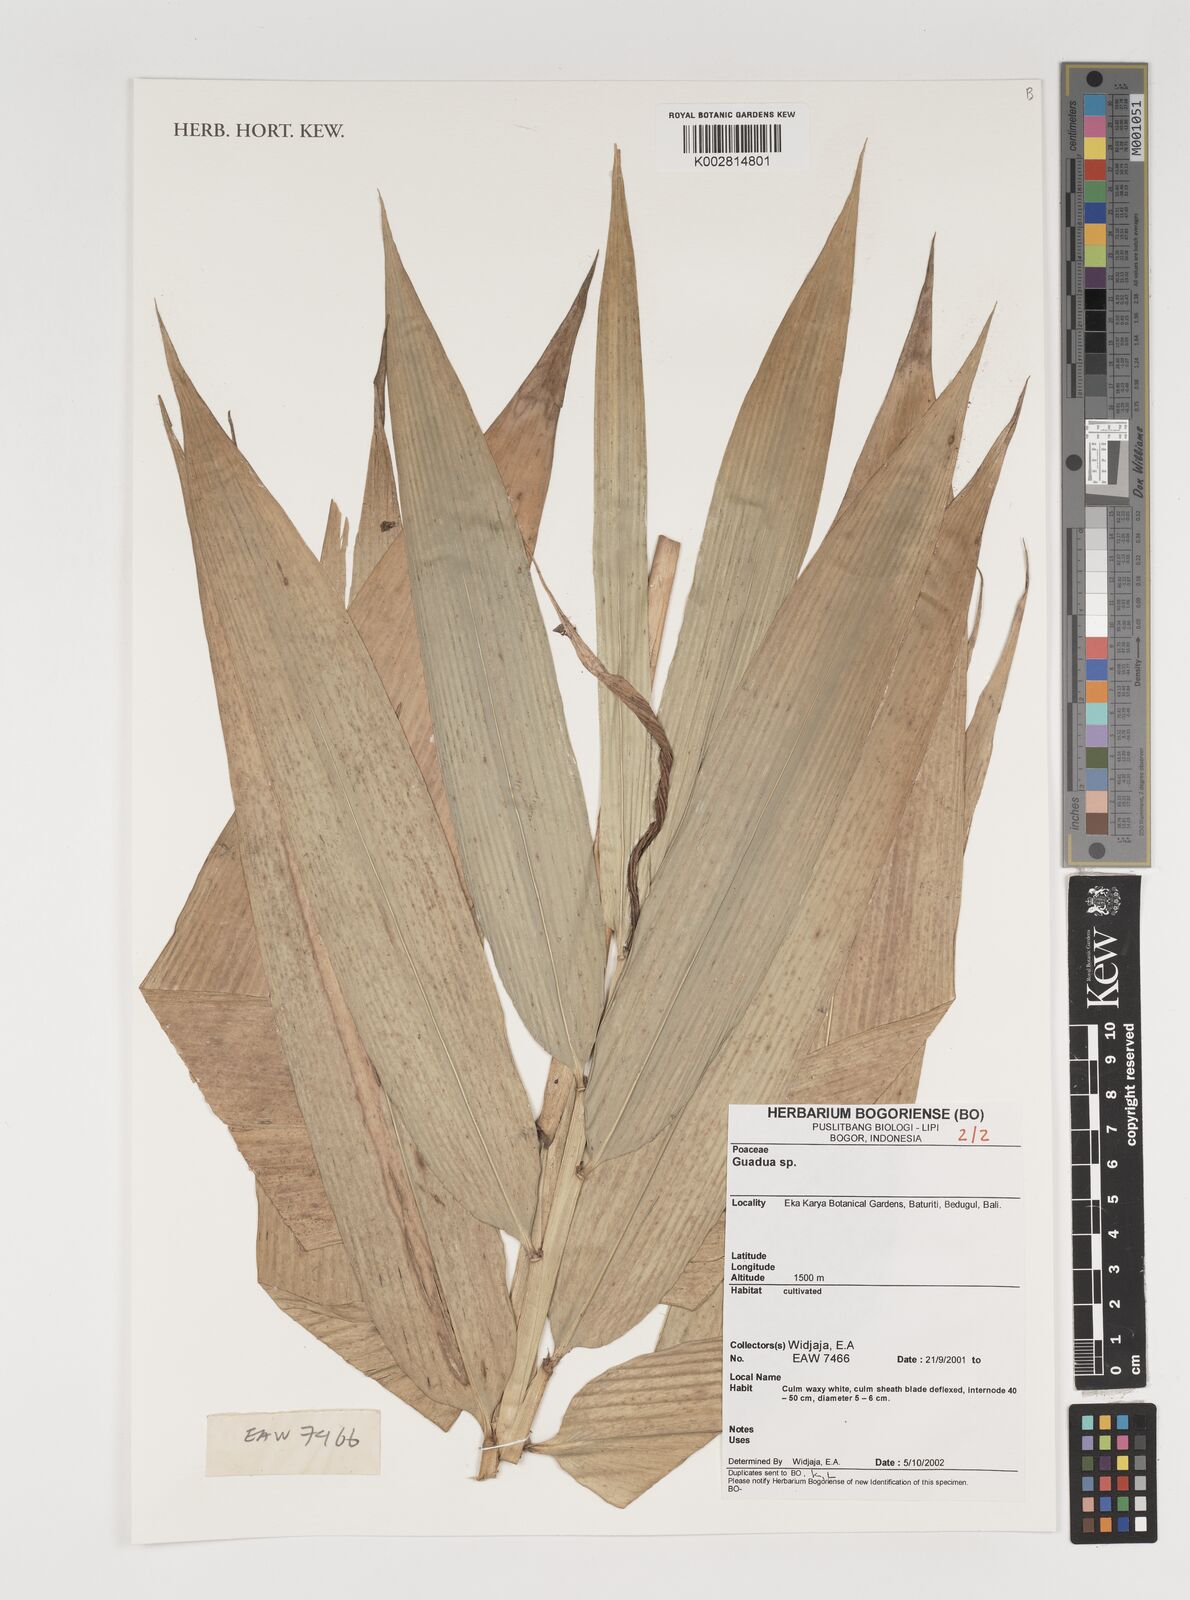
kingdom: Plantae
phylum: Tracheophyta
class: Liliopsida
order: Poales
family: Poaceae
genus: Guadua
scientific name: Guadua
